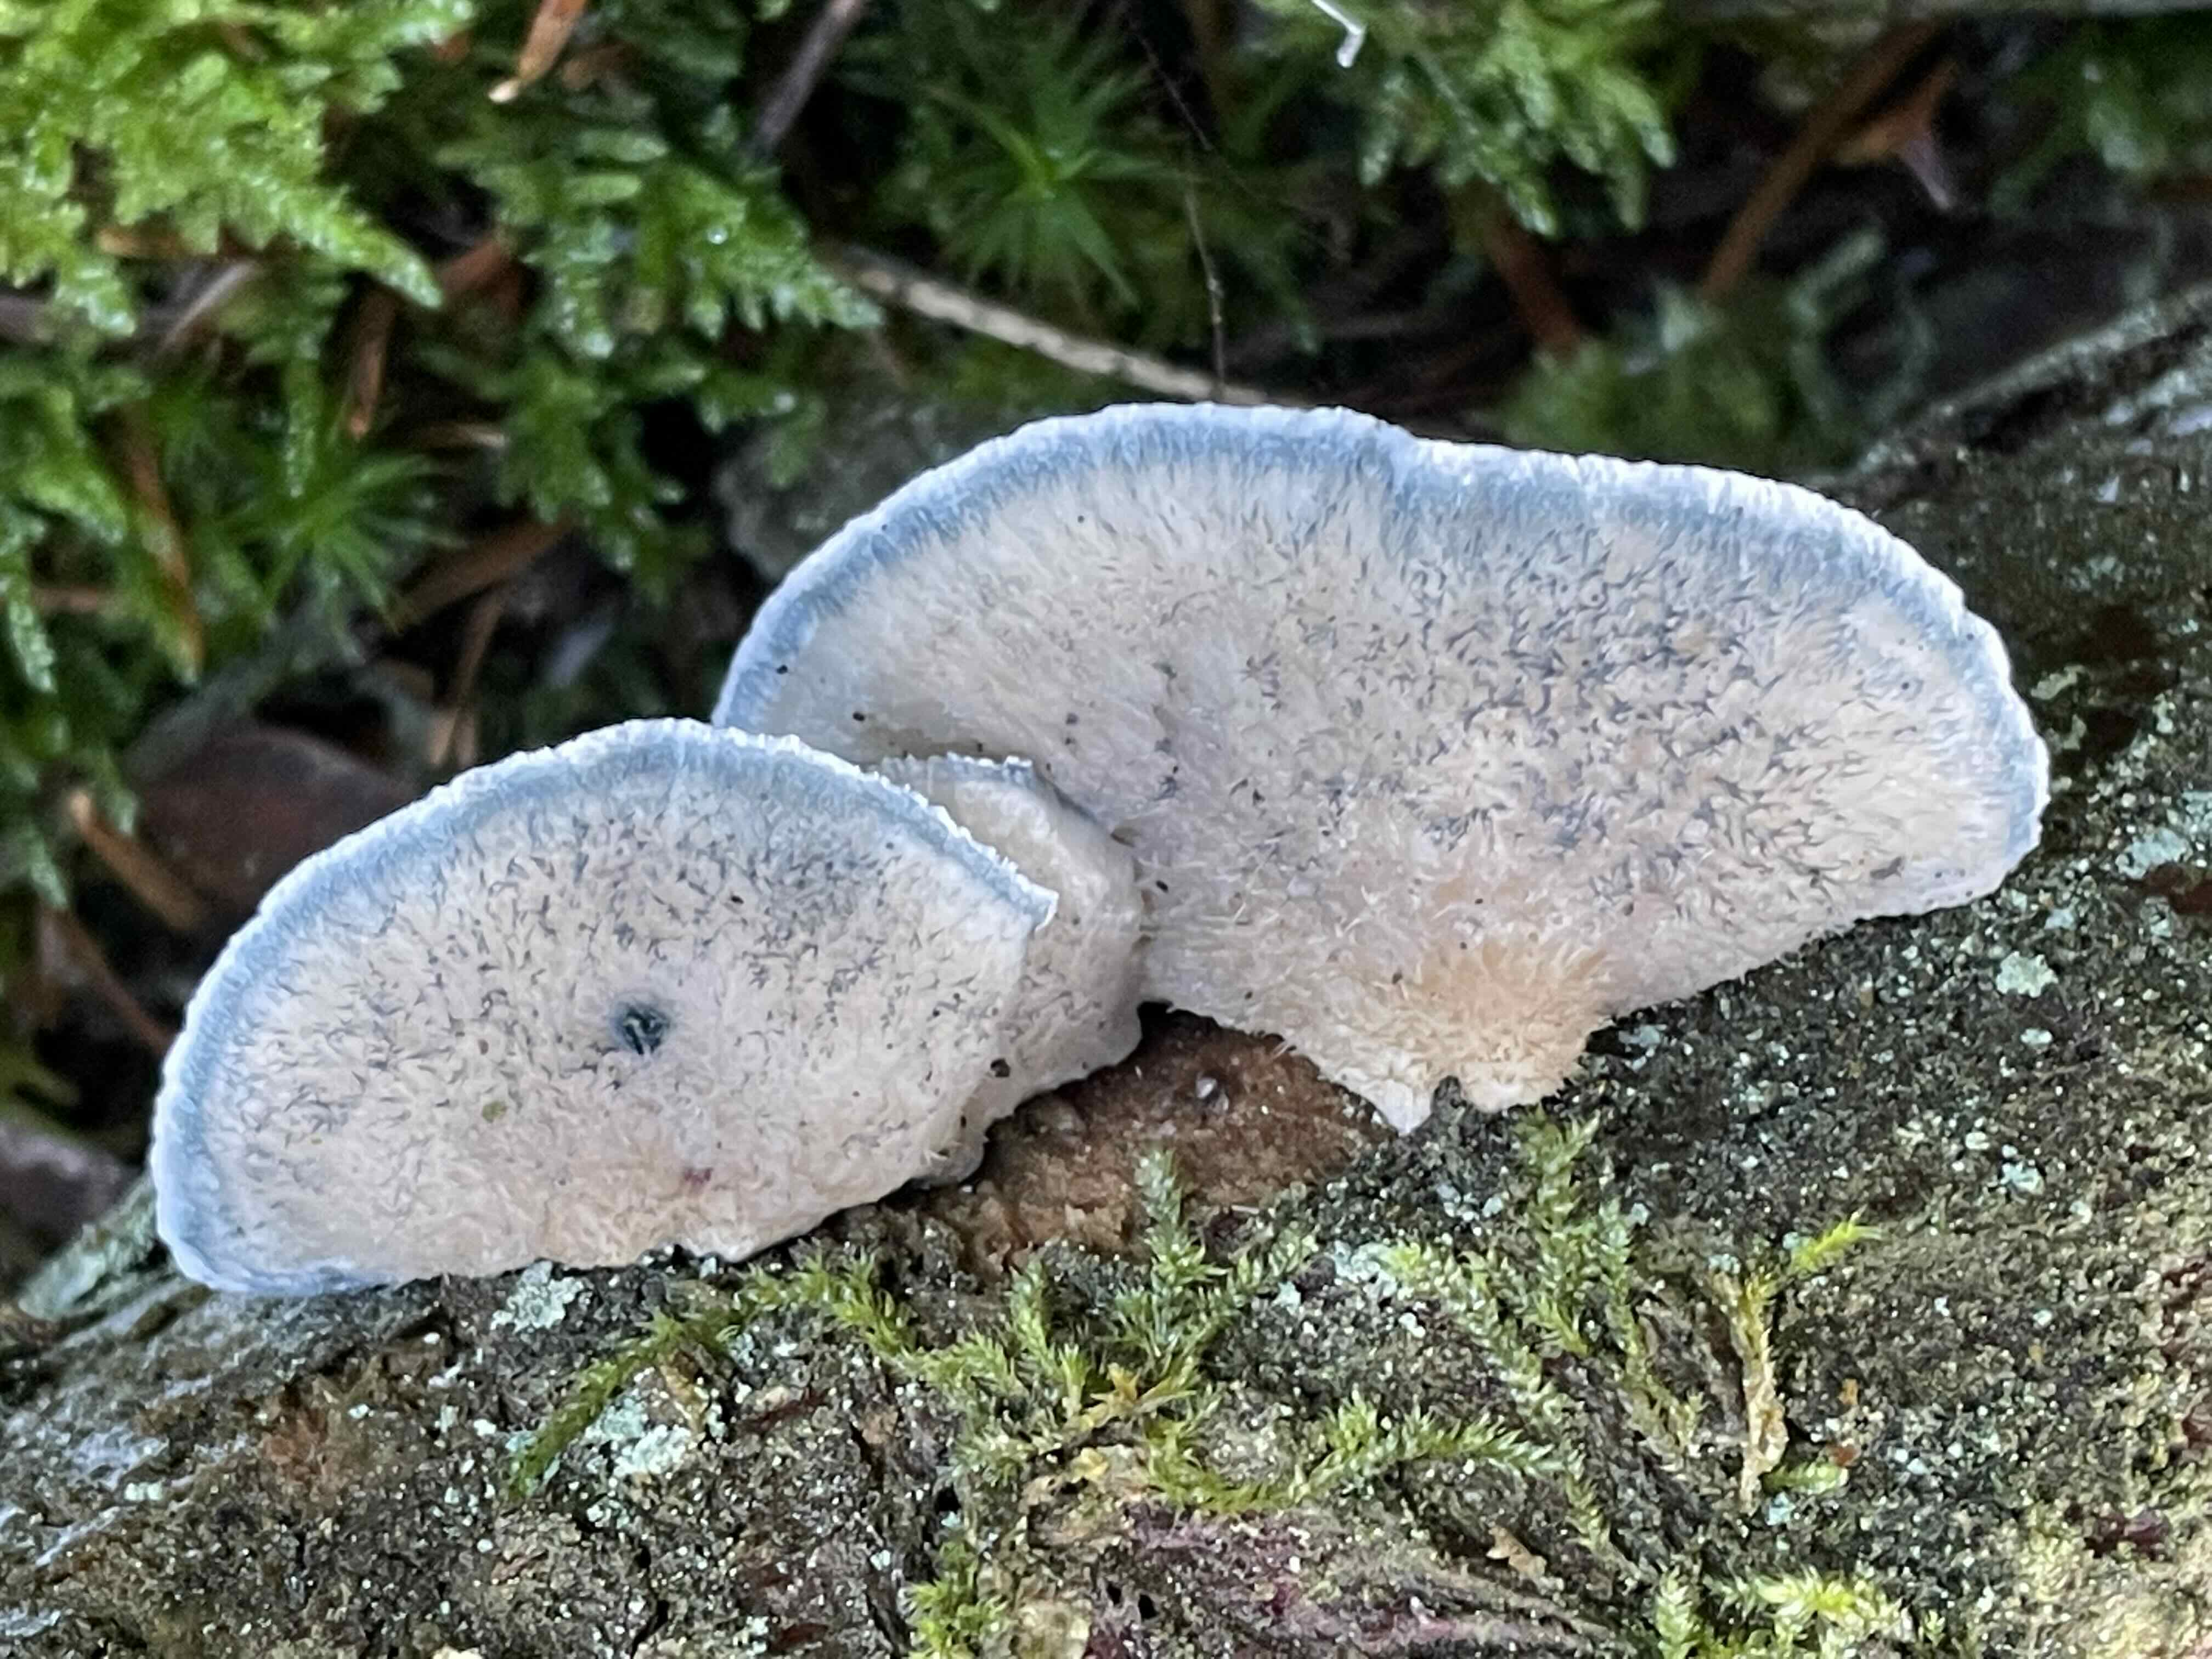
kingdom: Fungi
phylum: Basidiomycota
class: Agaricomycetes
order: Polyporales
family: Polyporaceae
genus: Cyanosporus
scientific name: Cyanosporus caesius
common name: blålig kødporesvamp
